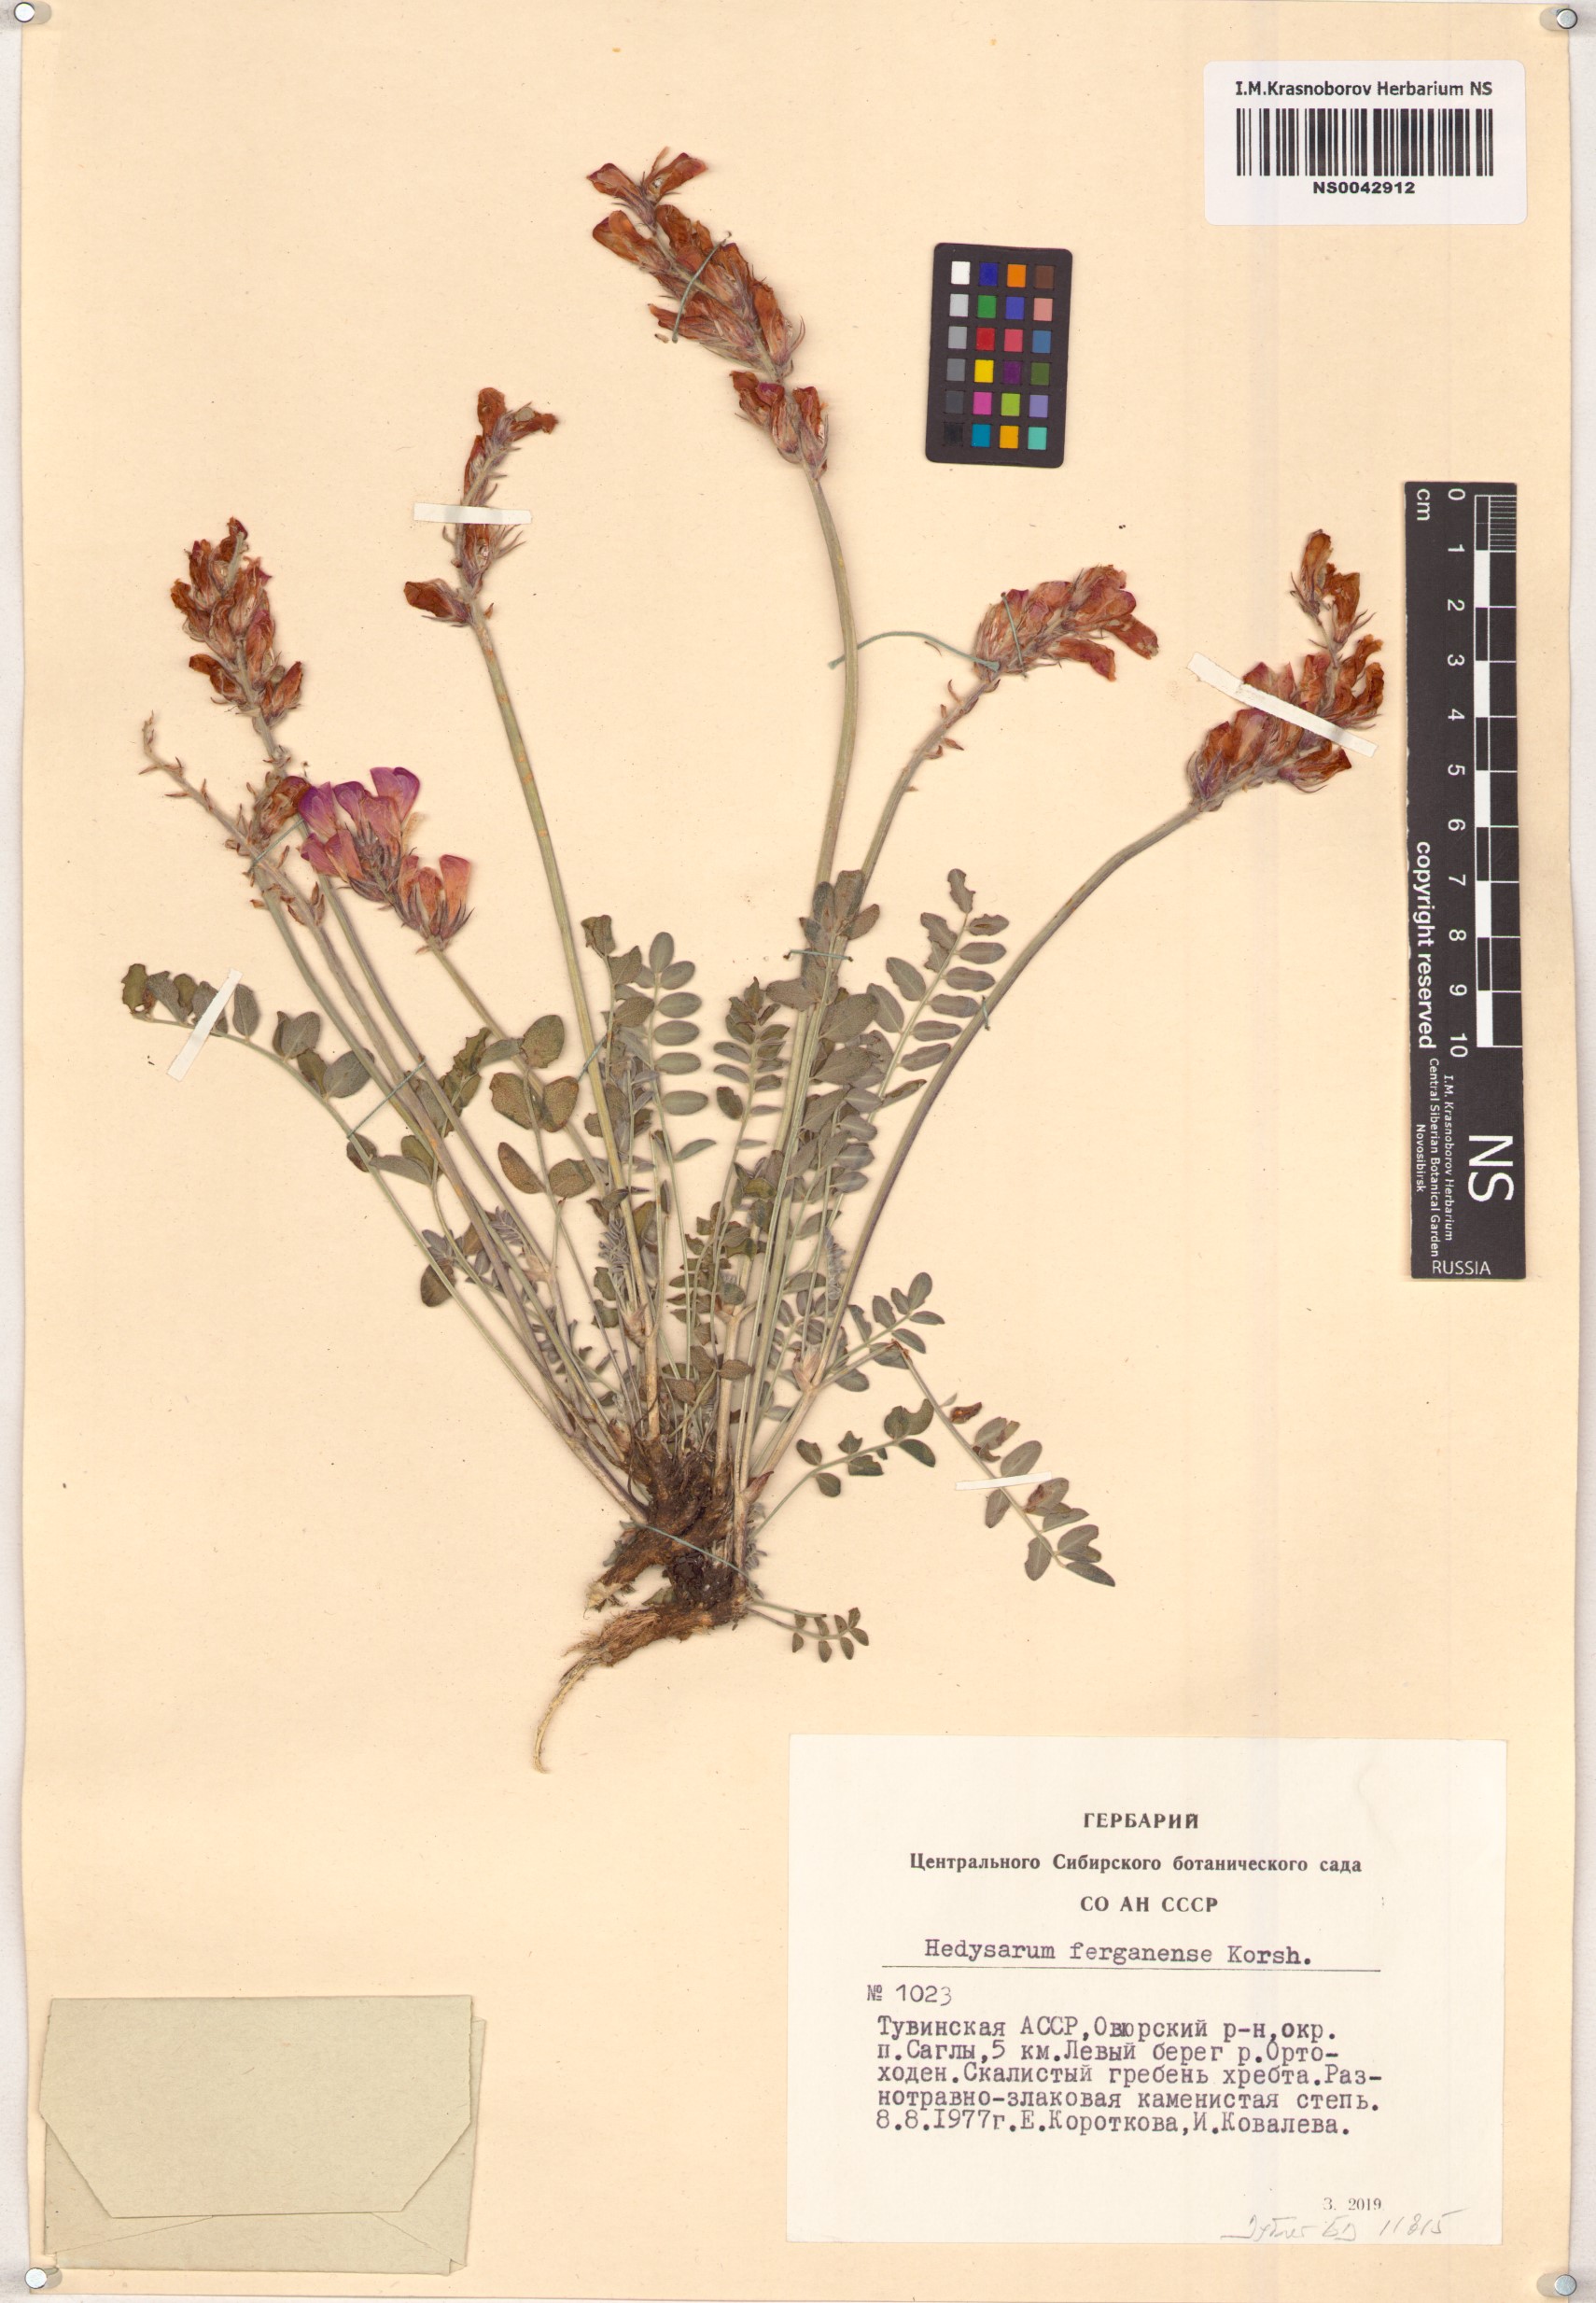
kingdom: Plantae
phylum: Tracheophyta
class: Magnoliopsida
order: Fabales
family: Fabaceae
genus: Hedysarum
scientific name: Hedysarum ferganense
